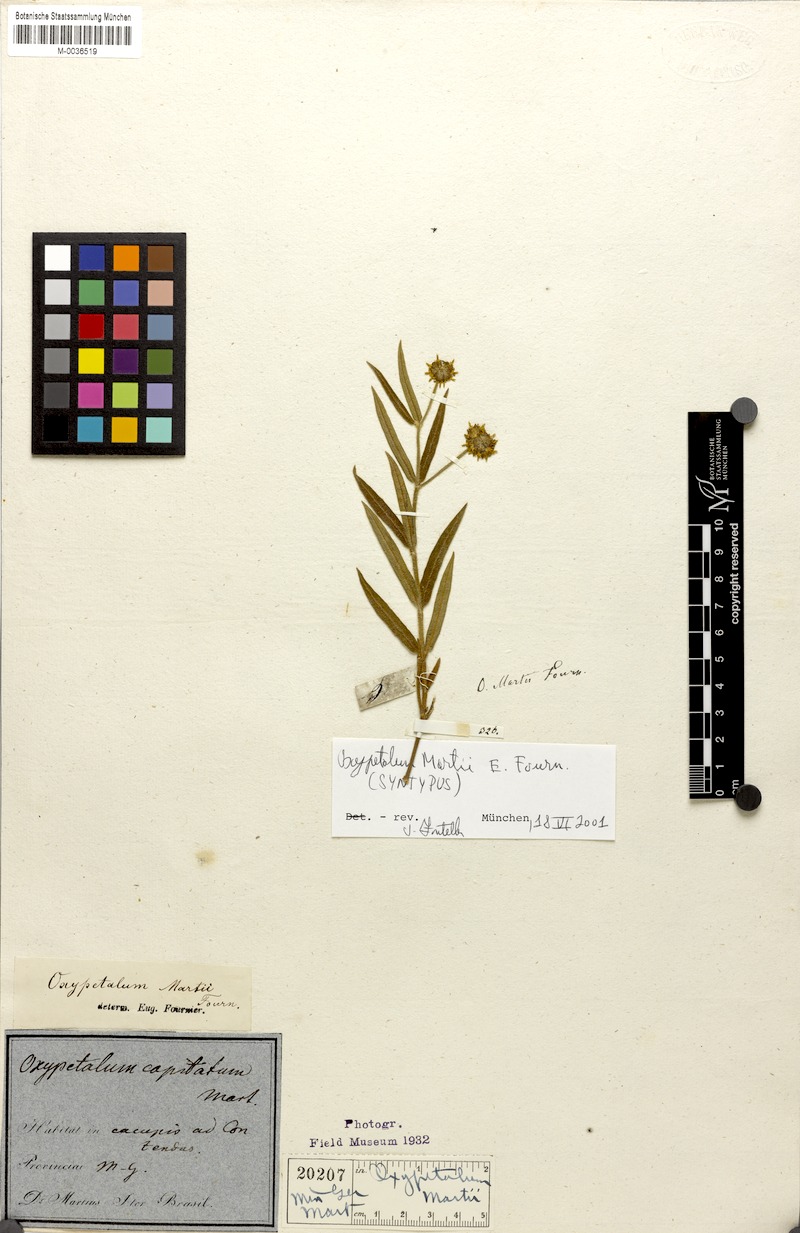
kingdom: Plantae
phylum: Tracheophyta
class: Magnoliopsida
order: Gentianales
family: Apocynaceae
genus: Oxypetalum
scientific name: Oxypetalum martii
